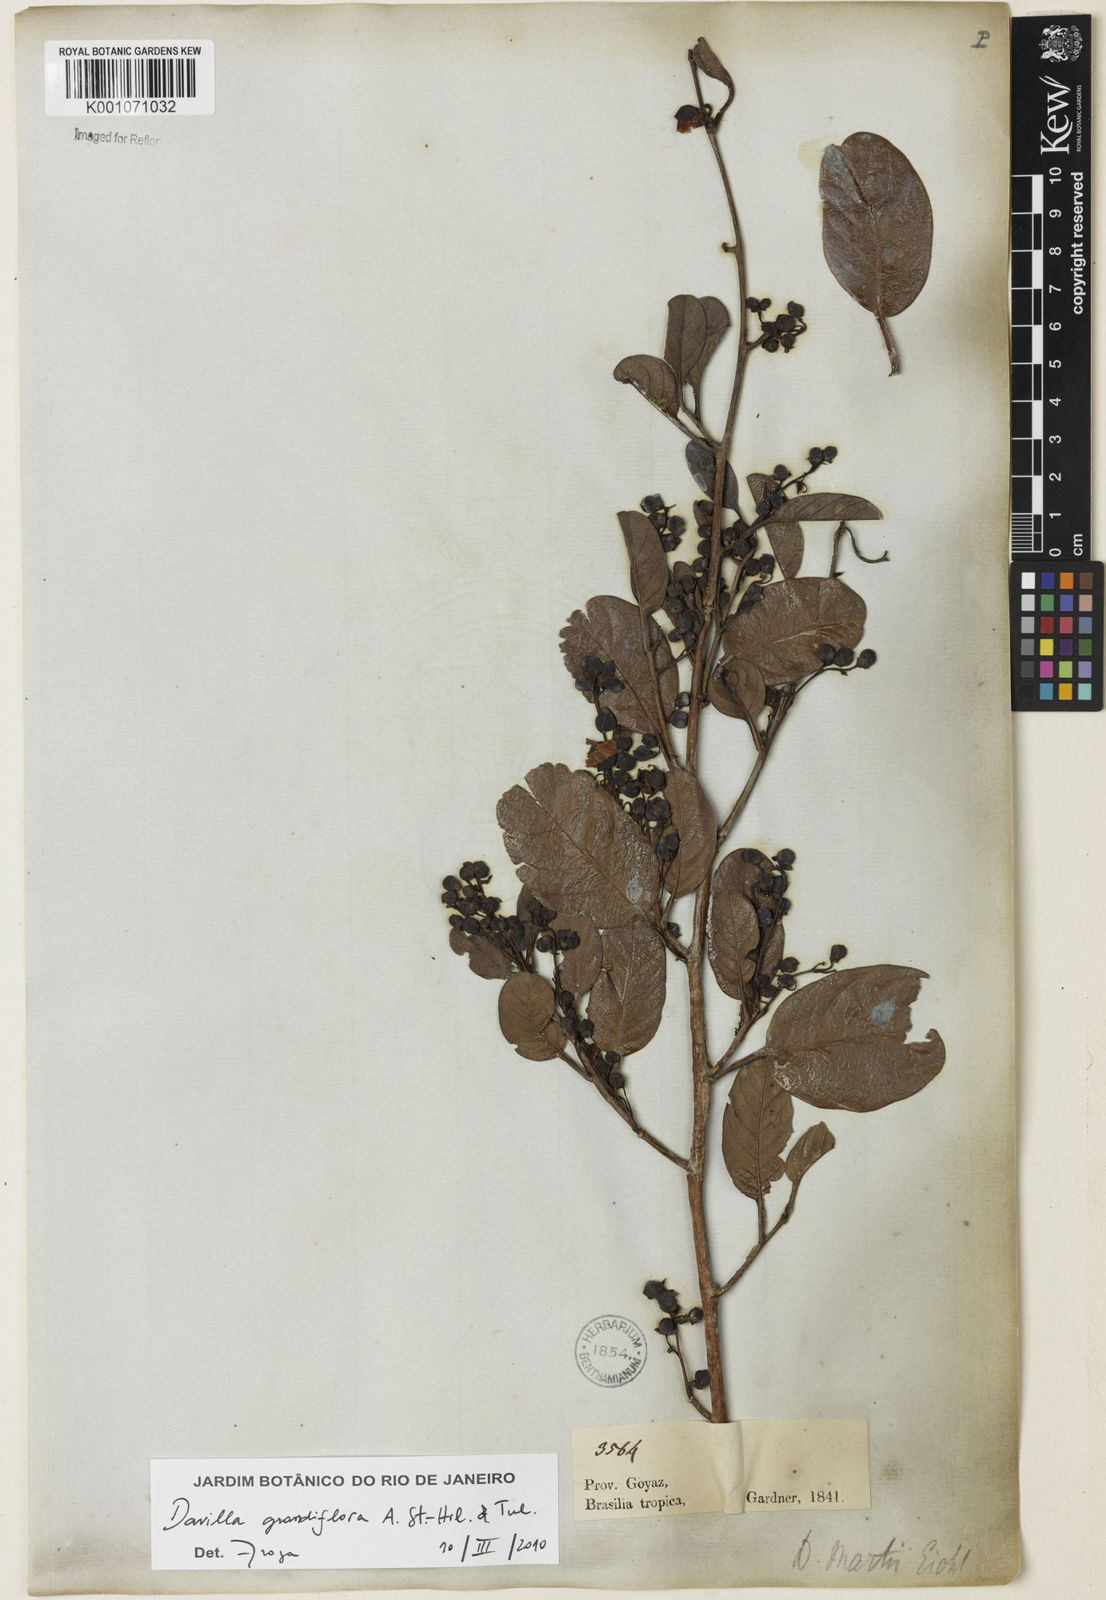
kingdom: Plantae
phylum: Tracheophyta
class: Magnoliopsida
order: Dilleniales
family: Dilleniaceae
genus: Davilla
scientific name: Davilla grandiflora
